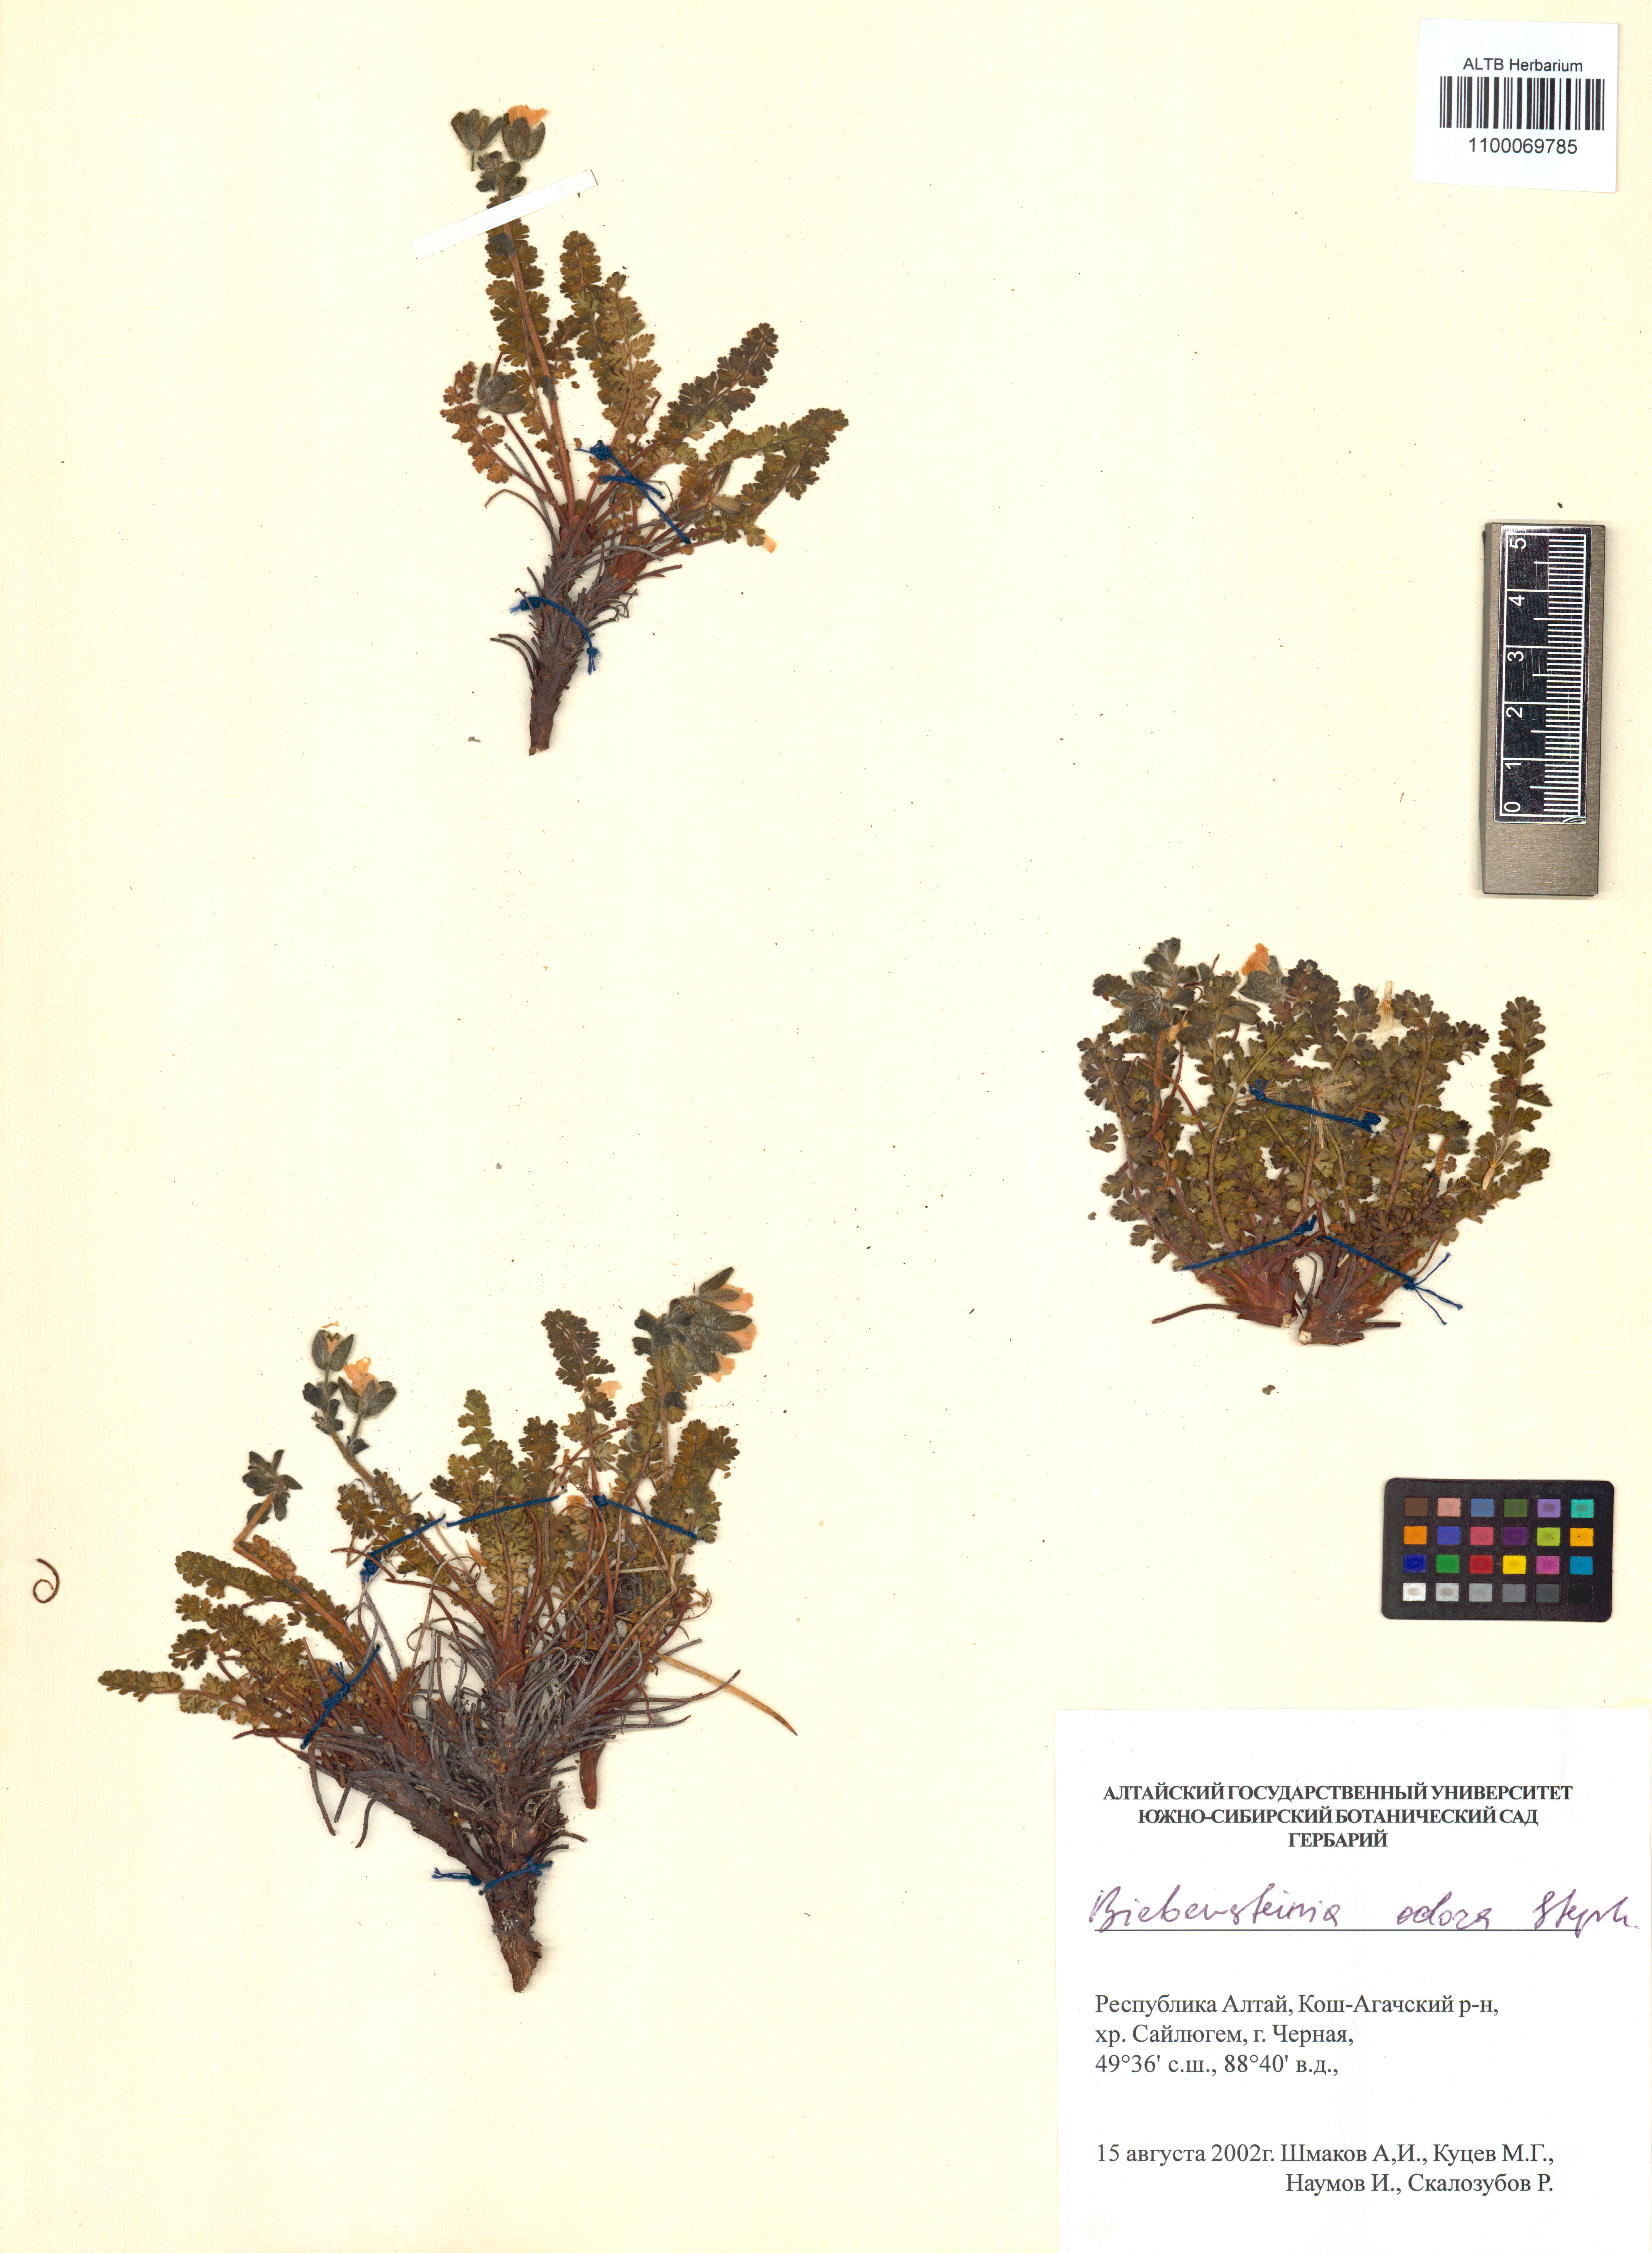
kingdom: Plantae
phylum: Tracheophyta
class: Magnoliopsida
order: Sapindales
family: Biebersteiniaceae
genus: Biebersteinia
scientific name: Biebersteinia odora
